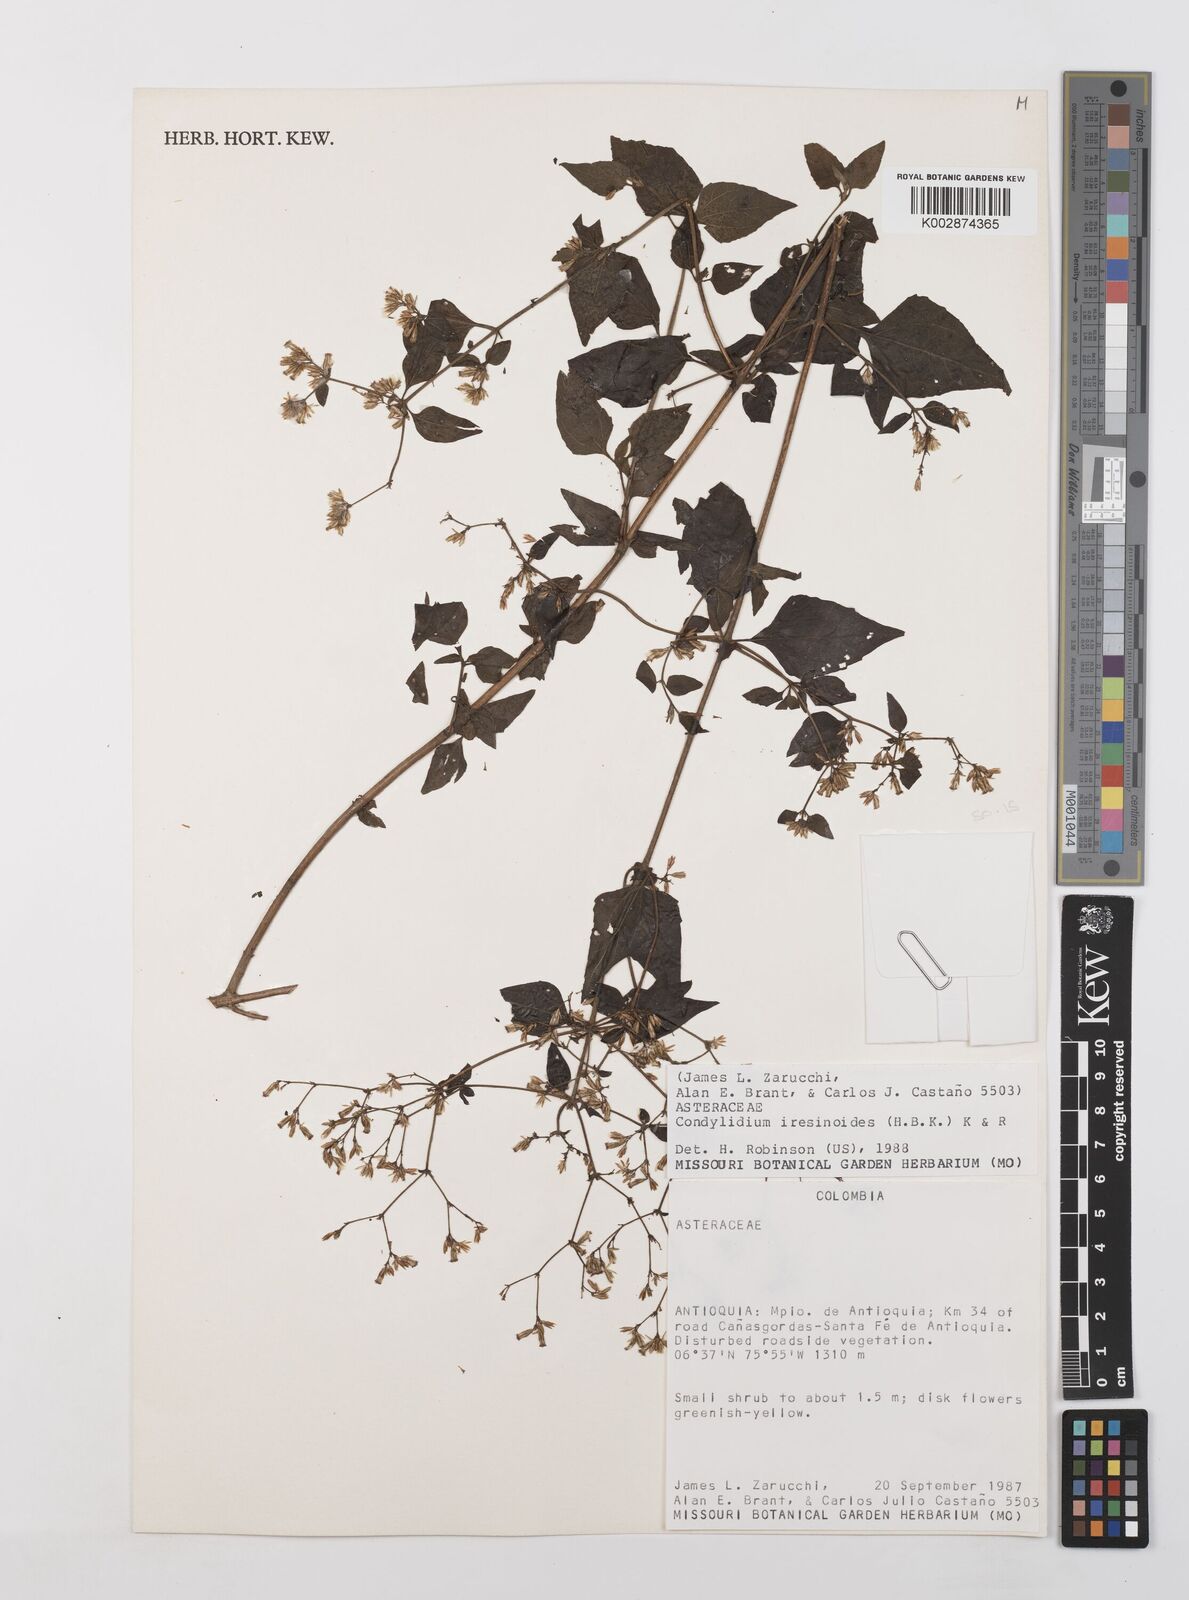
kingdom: Plantae
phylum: Tracheophyta
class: Magnoliopsida
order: Asterales
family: Asteraceae
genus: Condylidium
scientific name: Condylidium iresinoides
